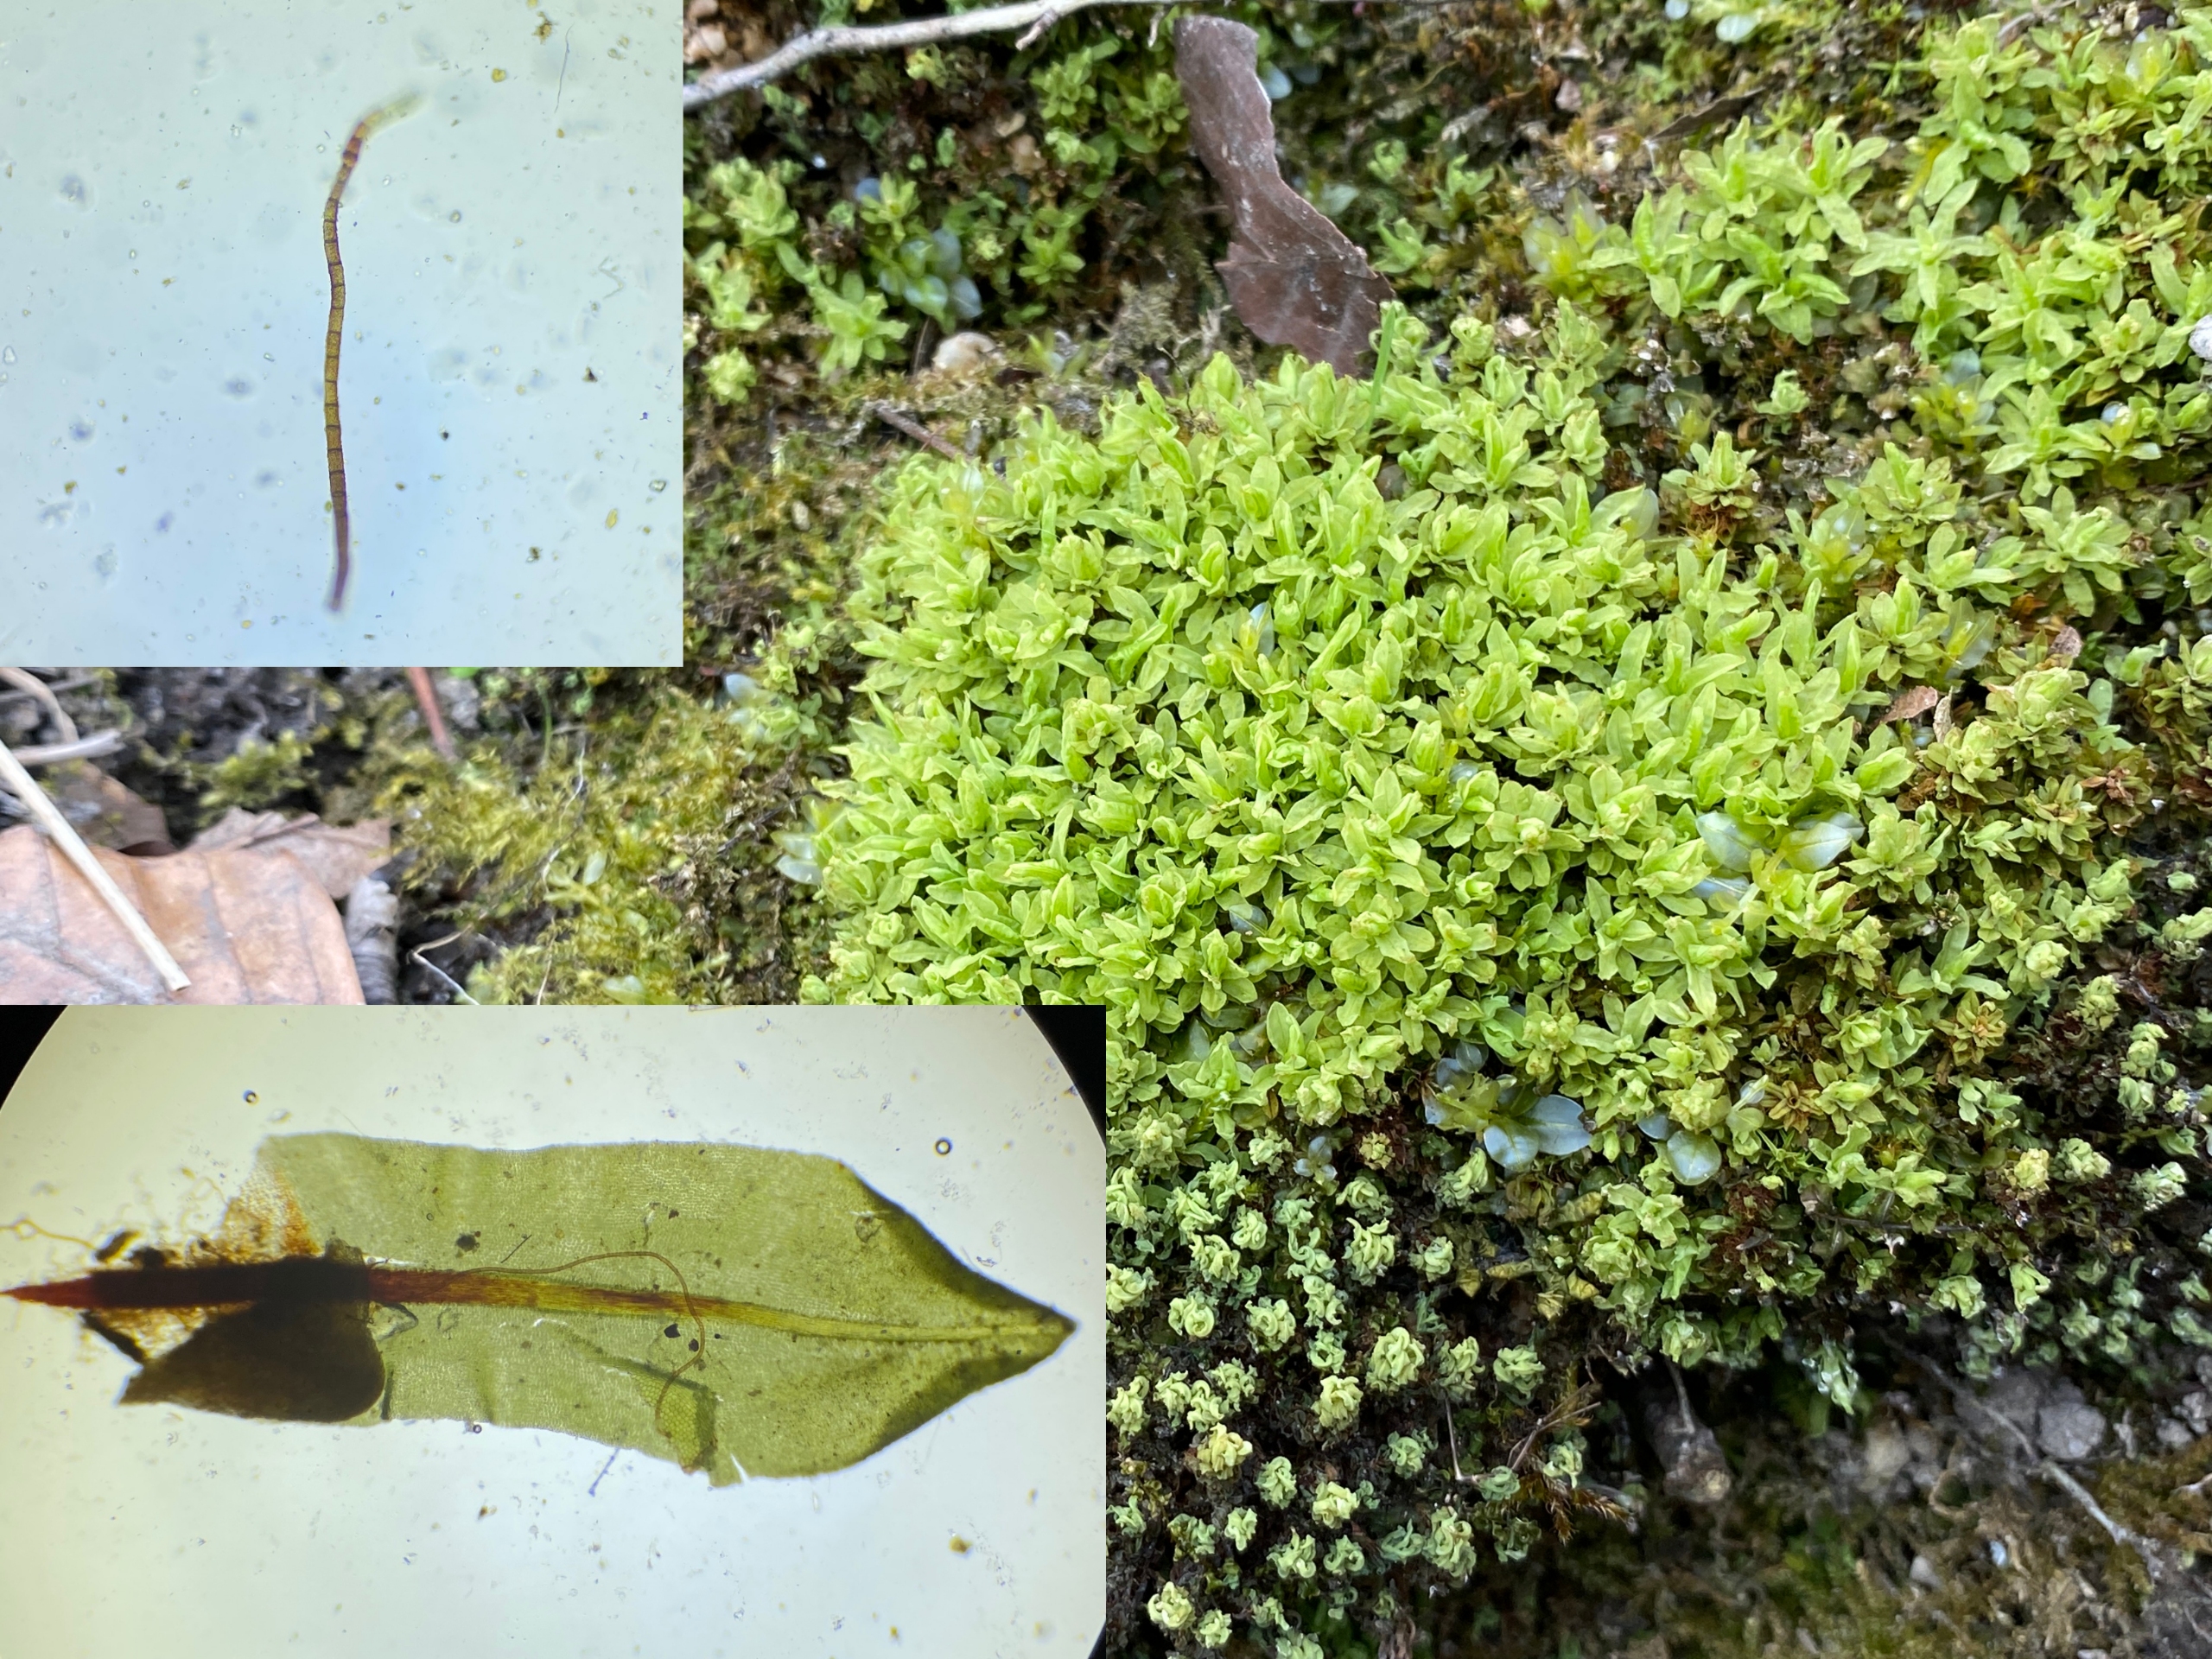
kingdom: Plantae
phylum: Bryophyta
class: Bryopsida
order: Encalyptales
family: Encalyptaceae
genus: Encalypta
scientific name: Encalypta streptocarpa
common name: Stor klokkehætte
